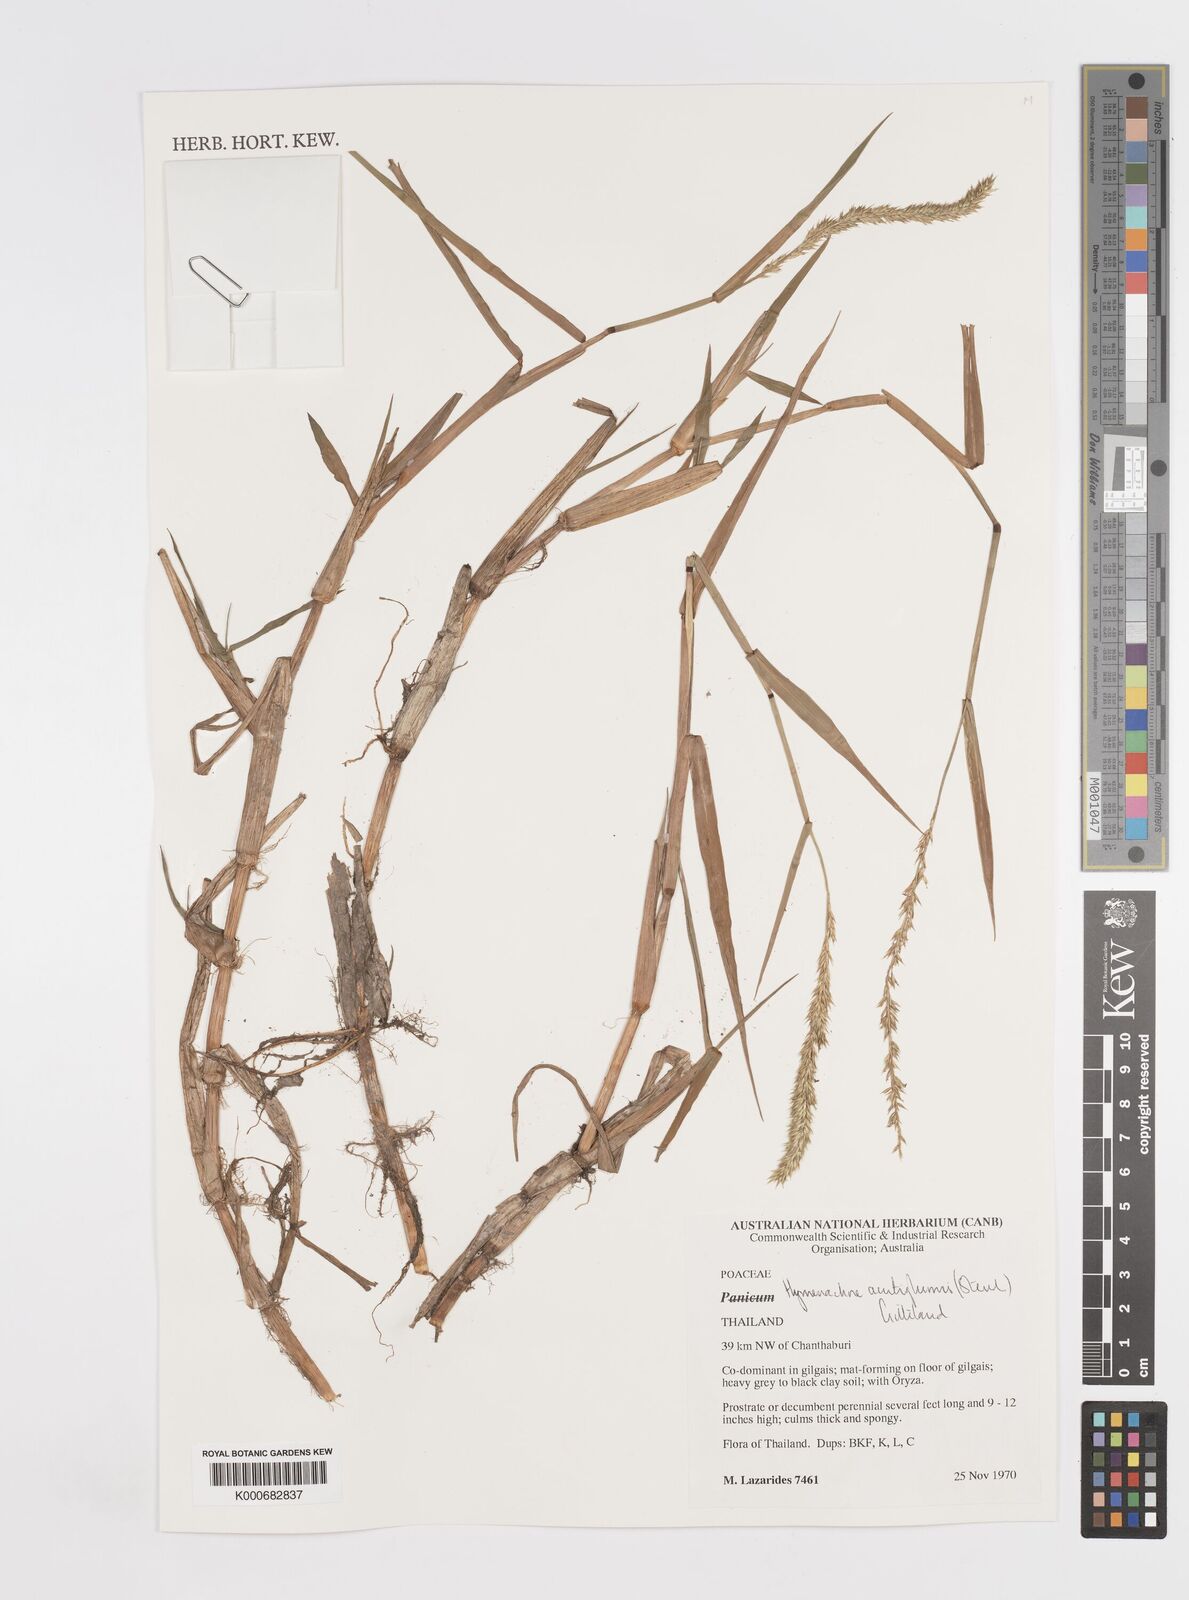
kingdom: Plantae
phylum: Tracheophyta
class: Liliopsida
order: Poales
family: Poaceae
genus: Hymenachne
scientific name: Hymenachne amplexicaulis
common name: Olive hymenachne
